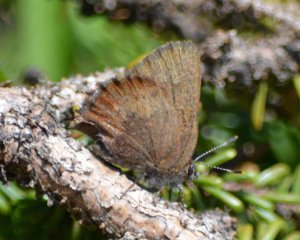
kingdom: Animalia
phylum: Arthropoda
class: Insecta
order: Lepidoptera
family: Lycaenidae
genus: Incisalia
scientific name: Incisalia irioides
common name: Brown Elfin
